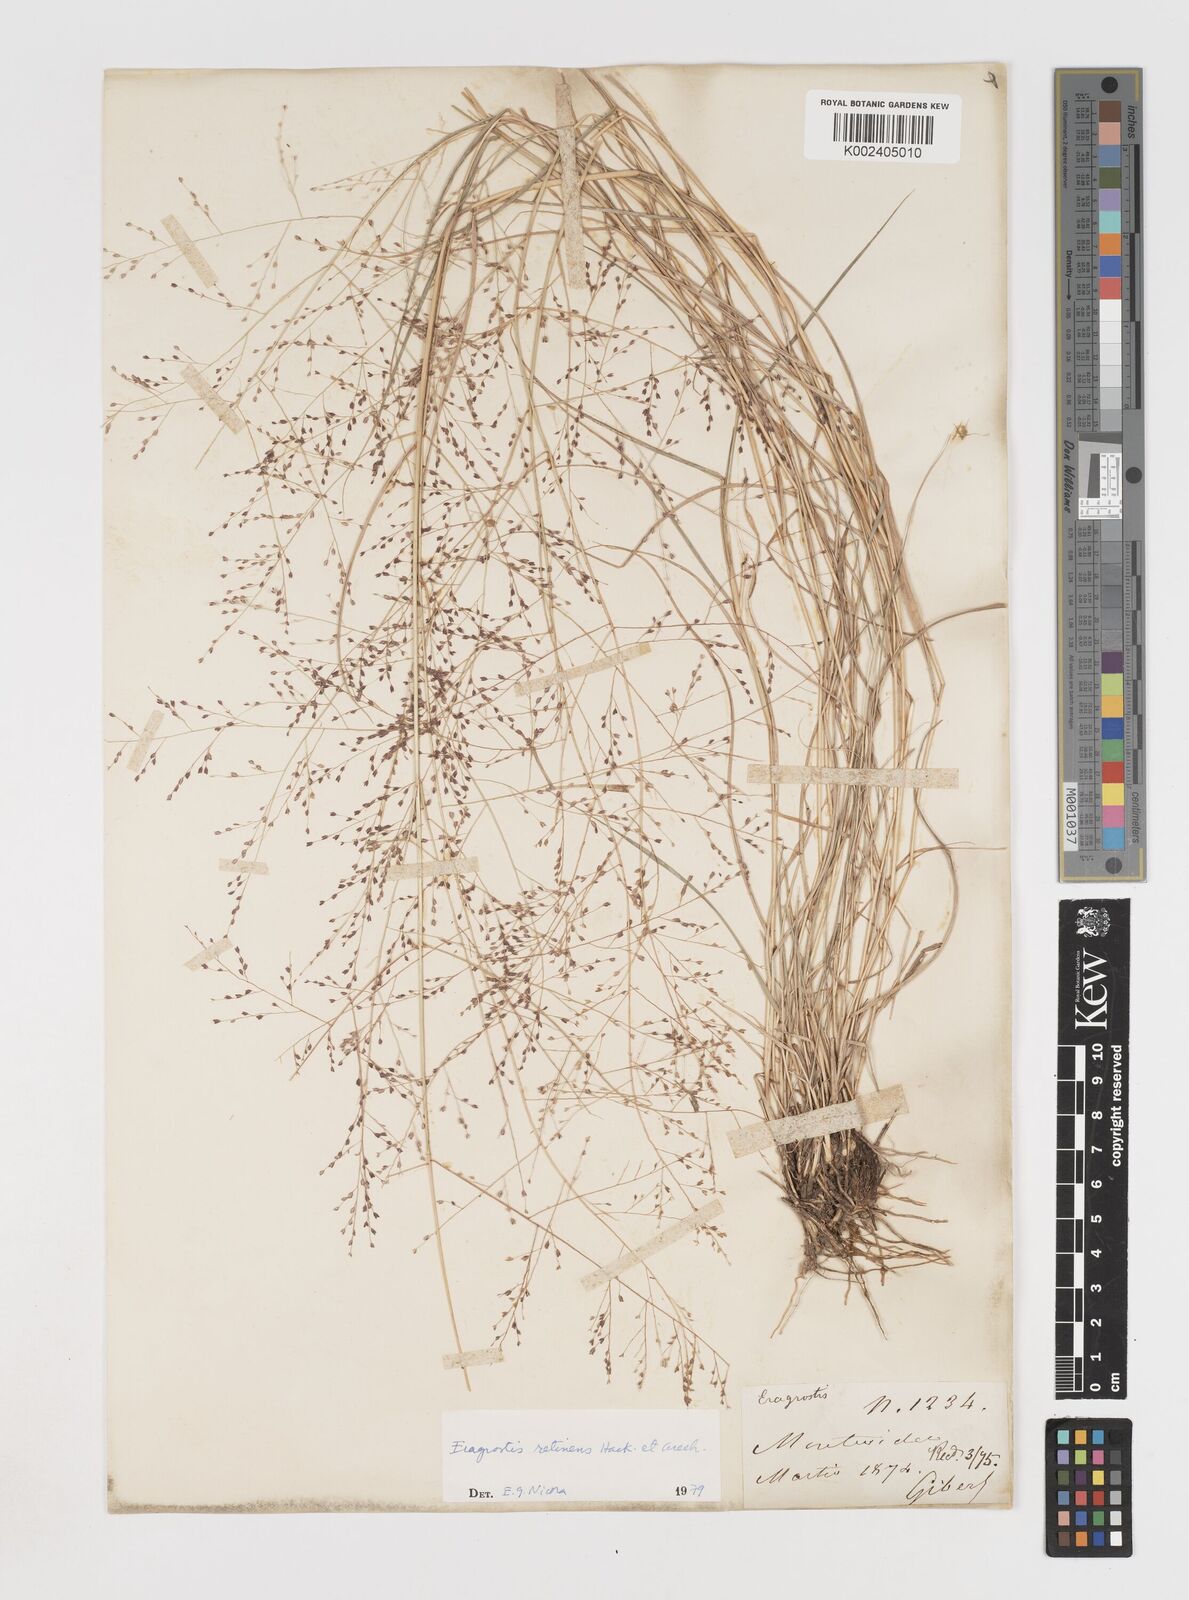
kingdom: Plantae
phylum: Tracheophyta
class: Liliopsida
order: Poales
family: Poaceae
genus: Eragrostis
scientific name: Eragrostis retinens
